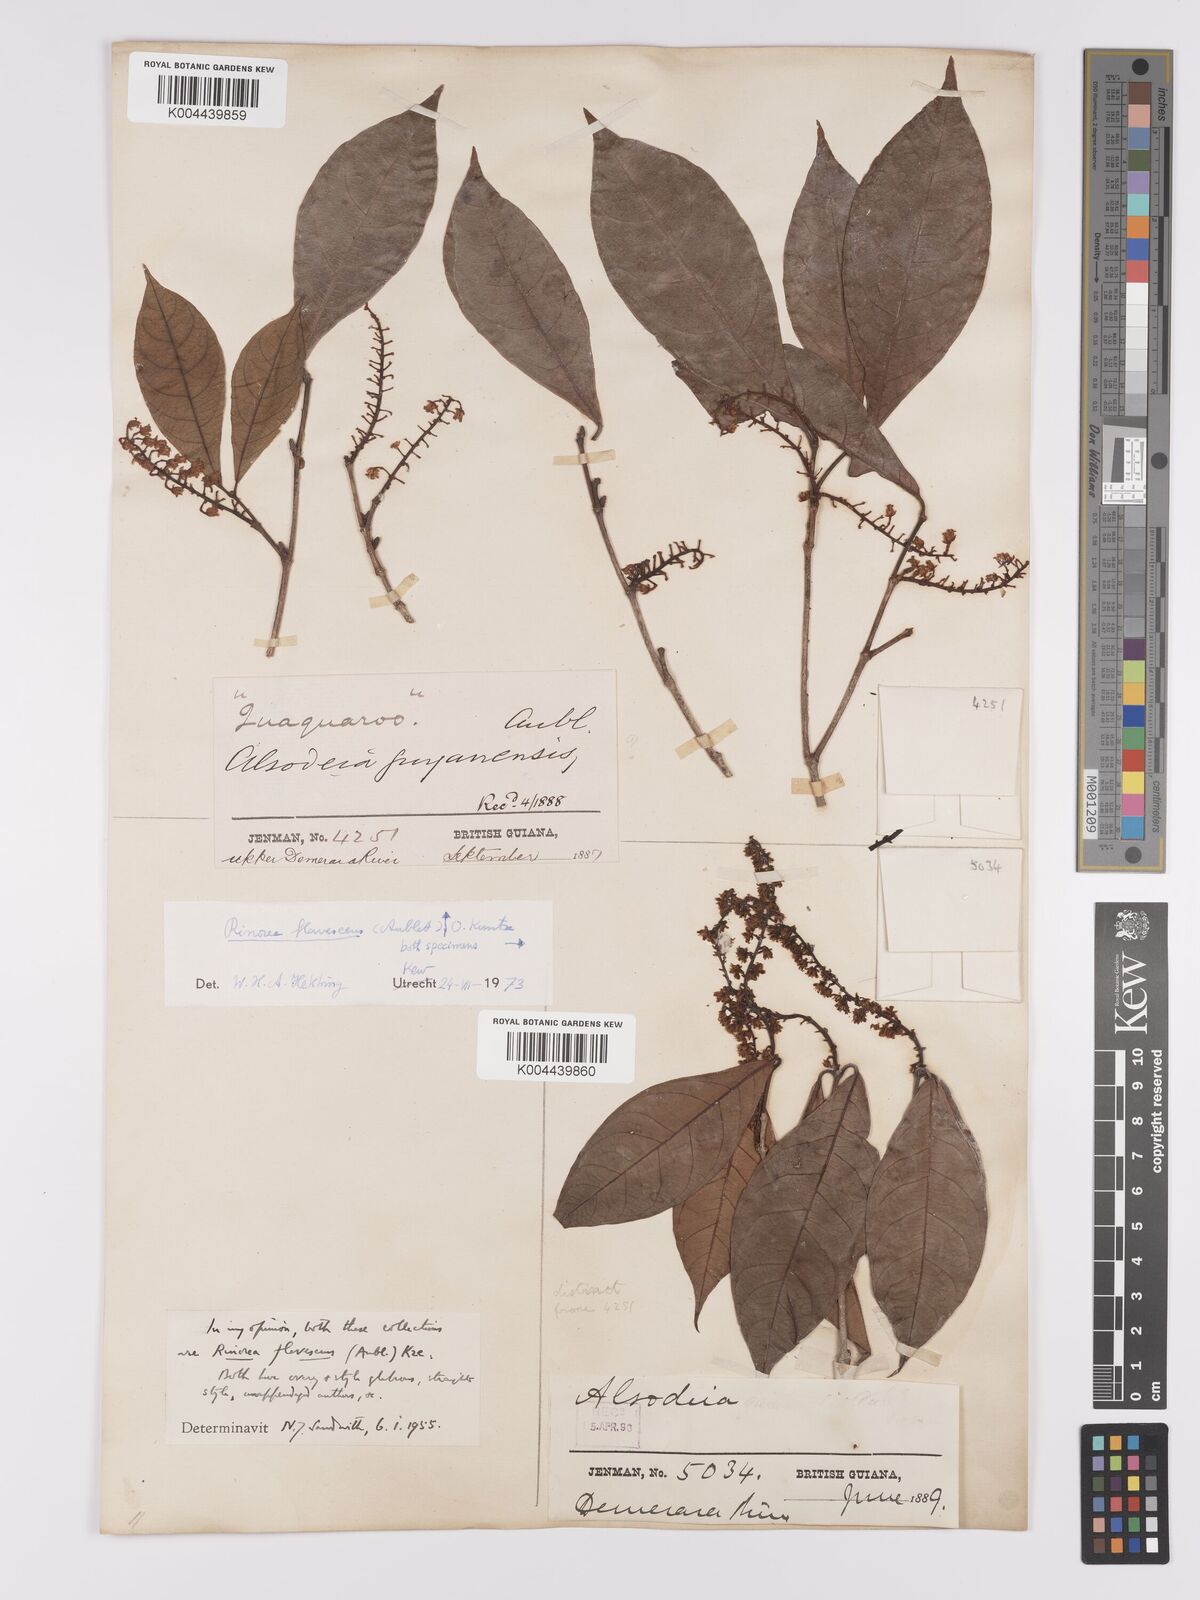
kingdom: Plantae
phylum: Tracheophyta
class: Magnoliopsida
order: Malpighiales
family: Violaceae
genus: Rinorea
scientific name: Rinorea flavescens
